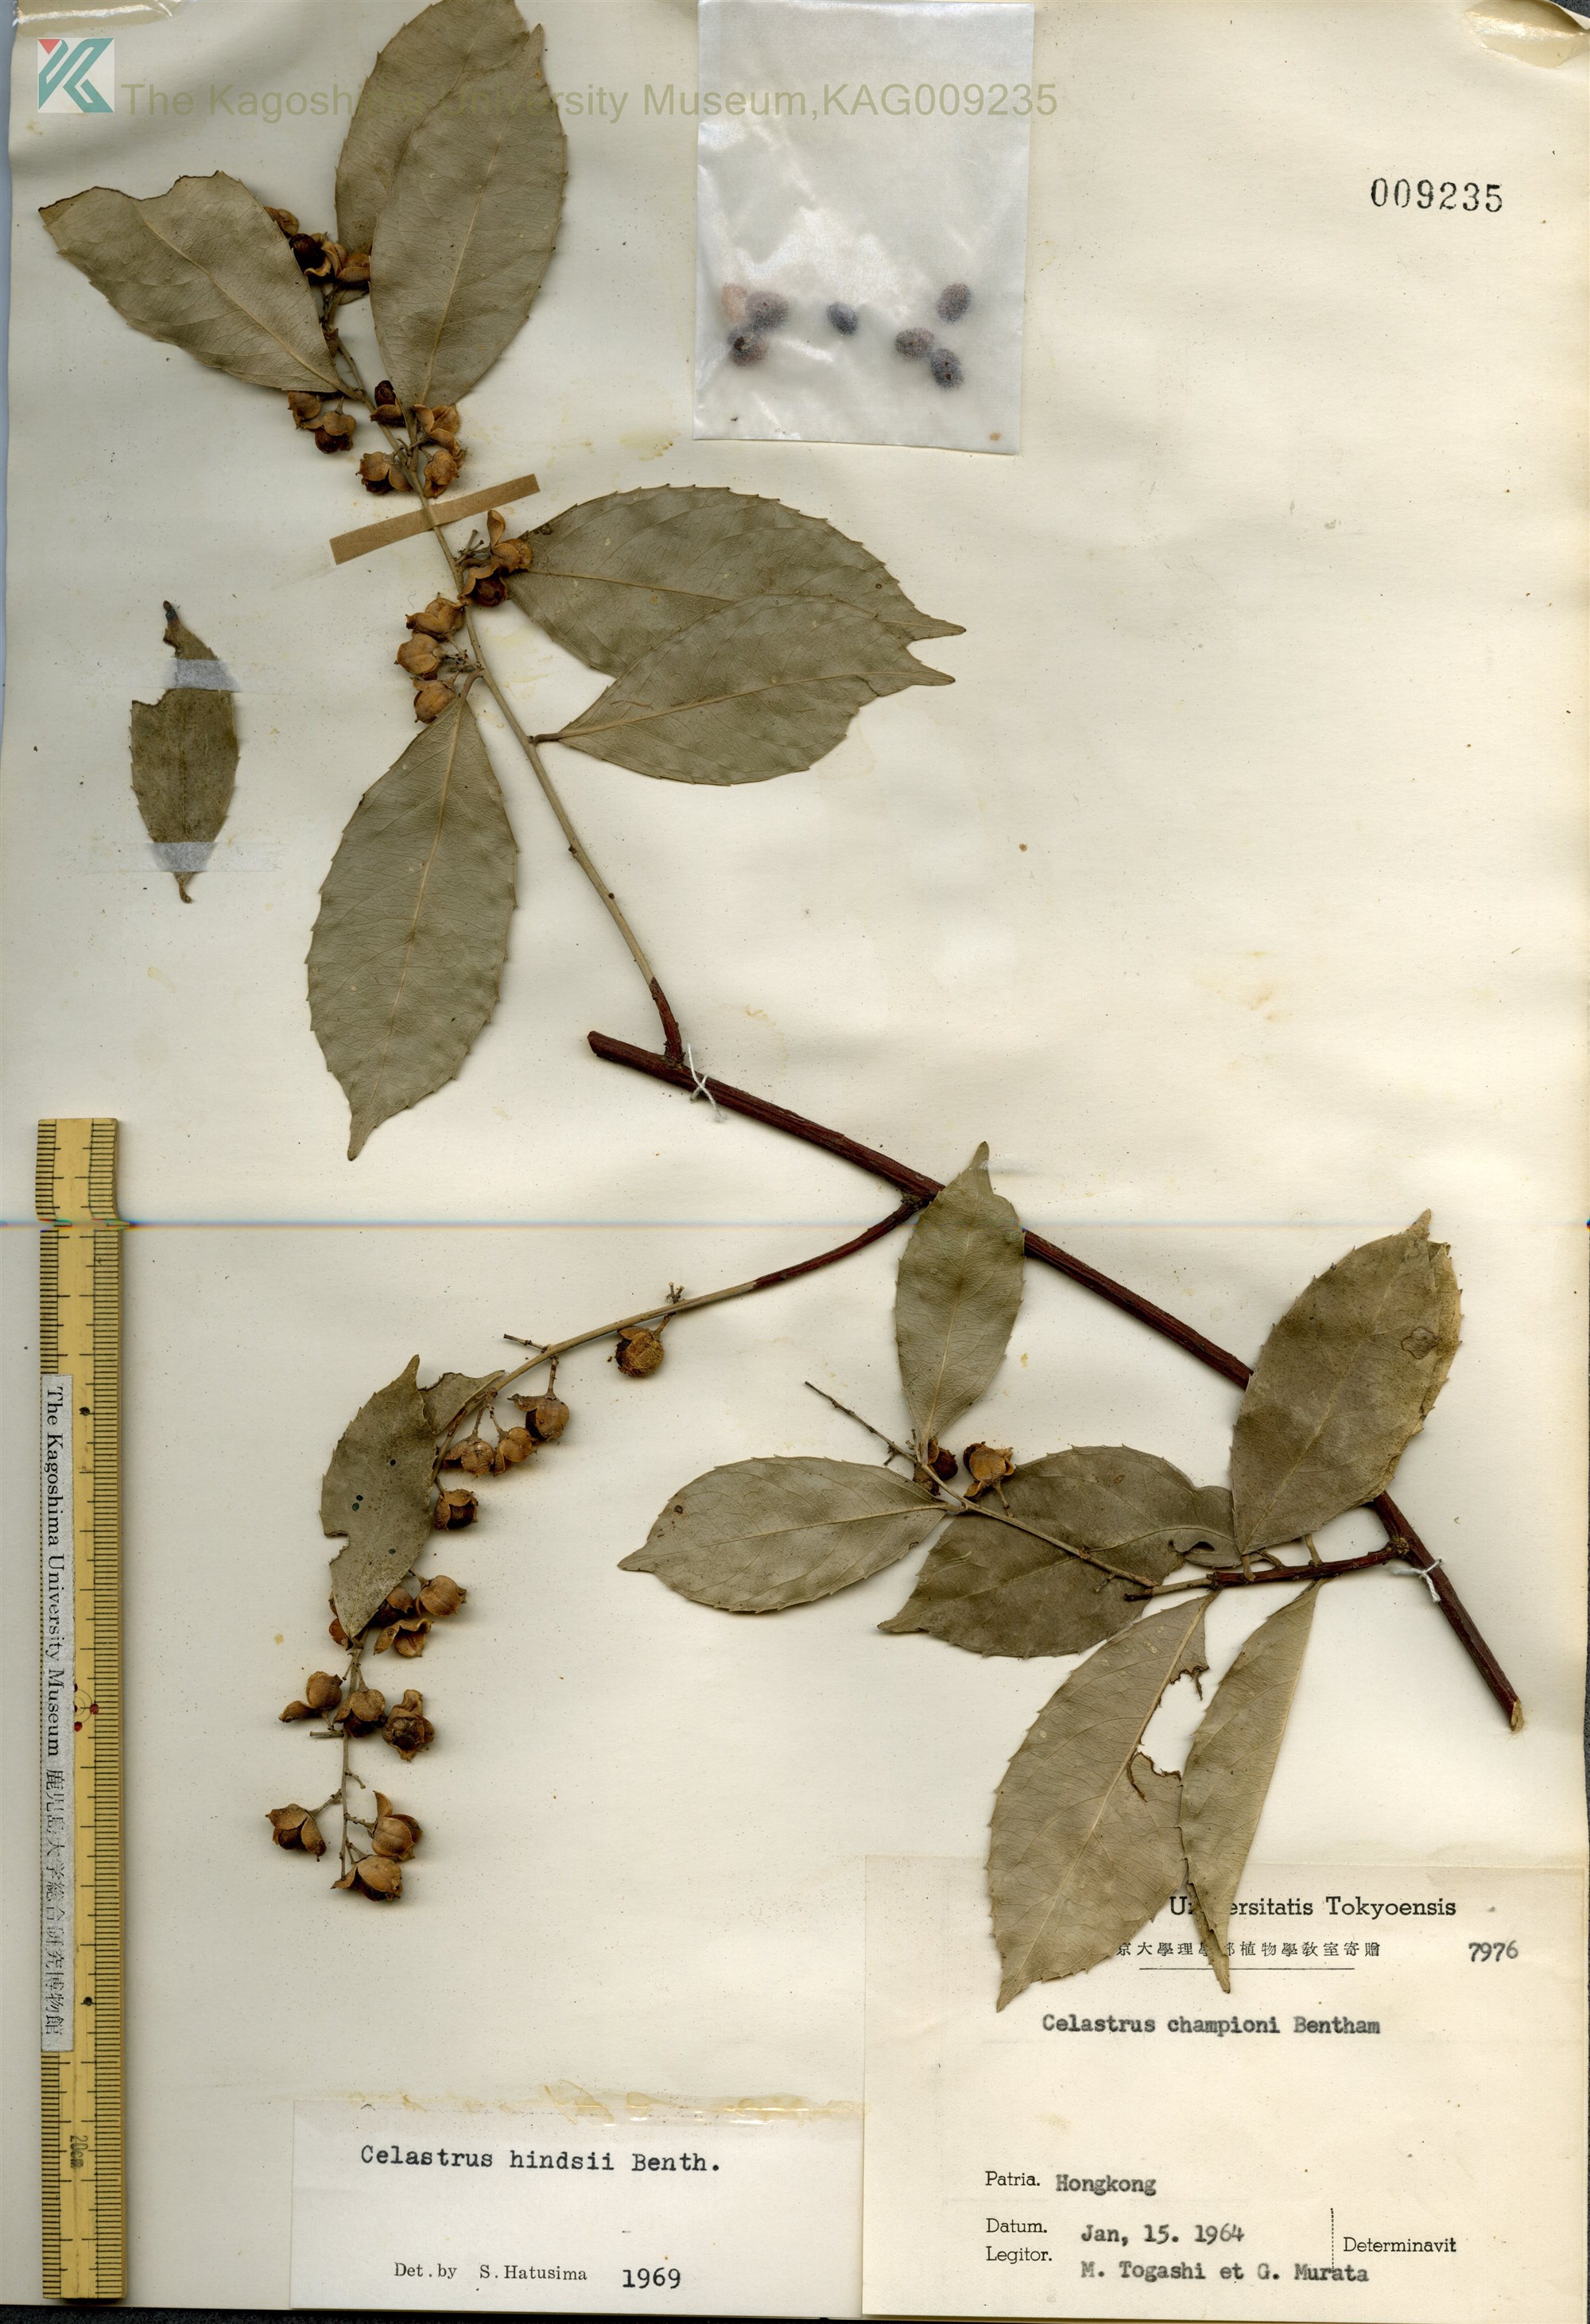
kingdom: Plantae
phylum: Tracheophyta
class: Magnoliopsida
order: Celastrales
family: Celastraceae
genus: Celastrus
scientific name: Celastrus hindsii
